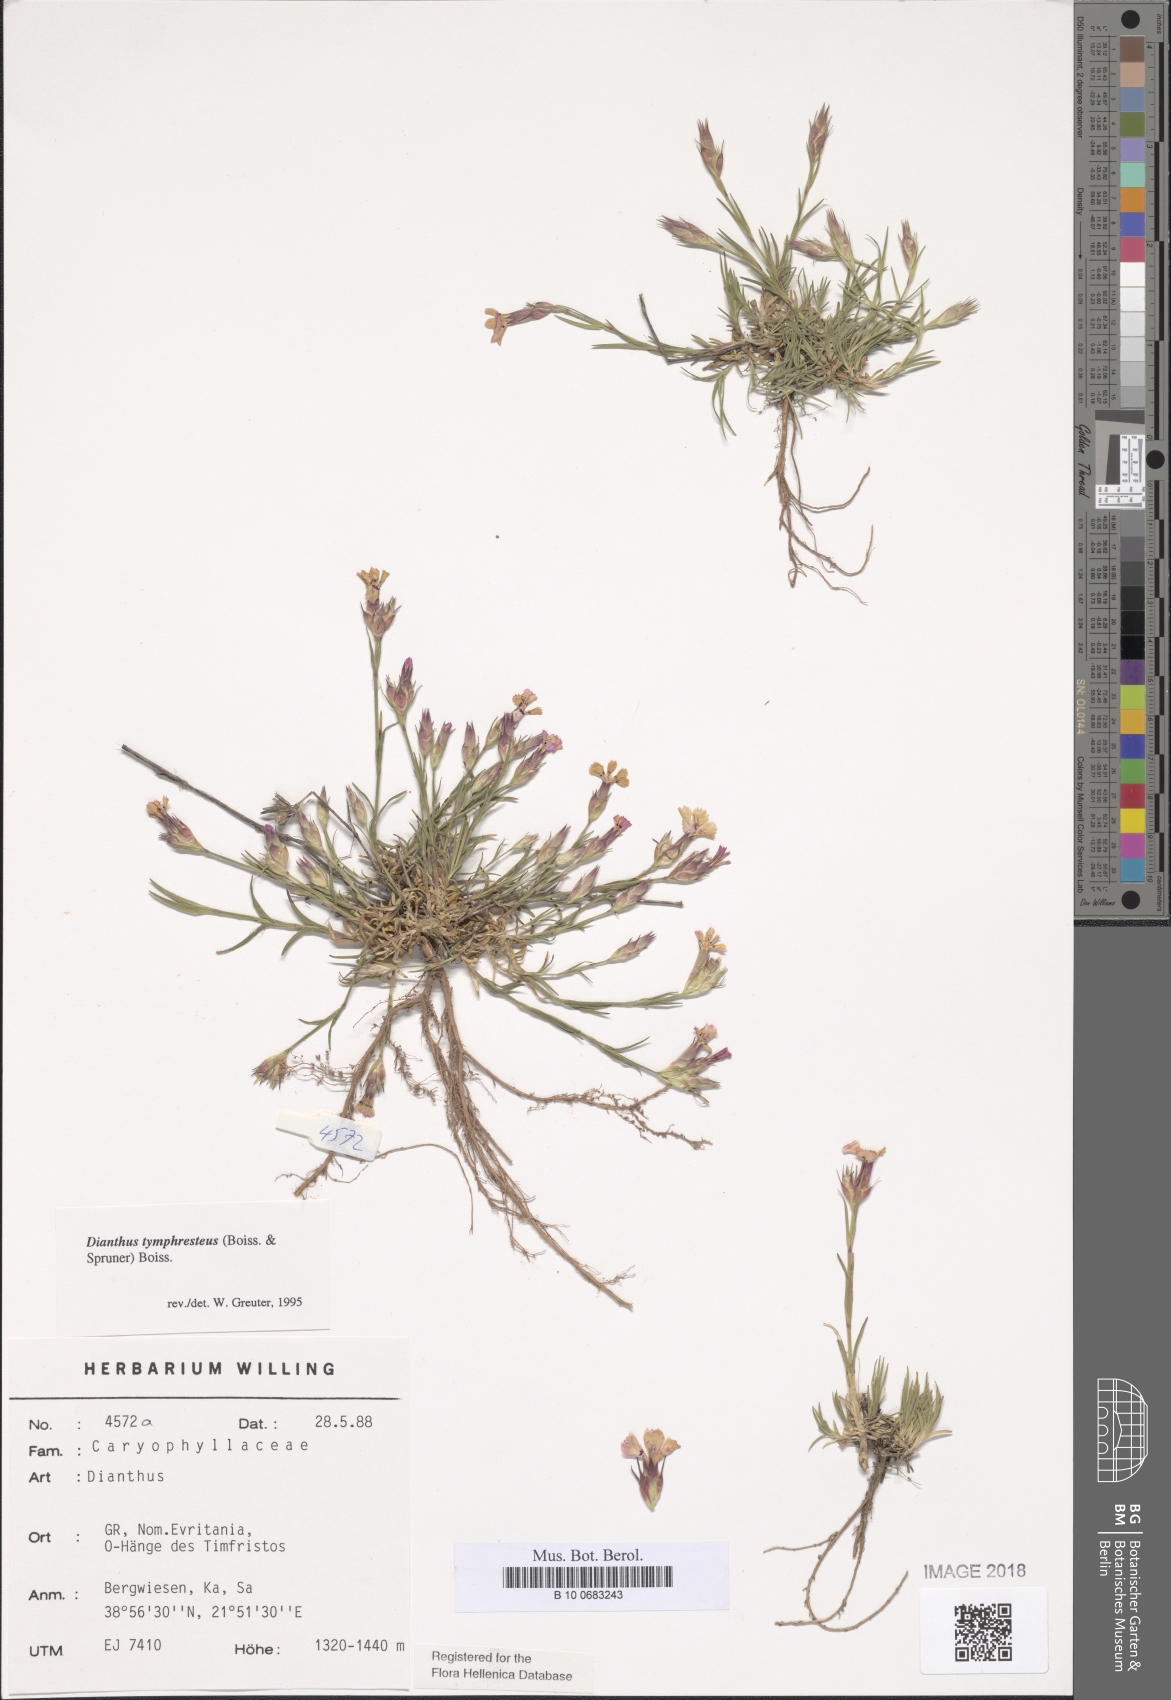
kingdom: Plantae
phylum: Tracheophyta
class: Magnoliopsida
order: Caryophyllales
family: Caryophyllaceae
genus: Dianthus
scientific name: Dianthus tymphresteus
